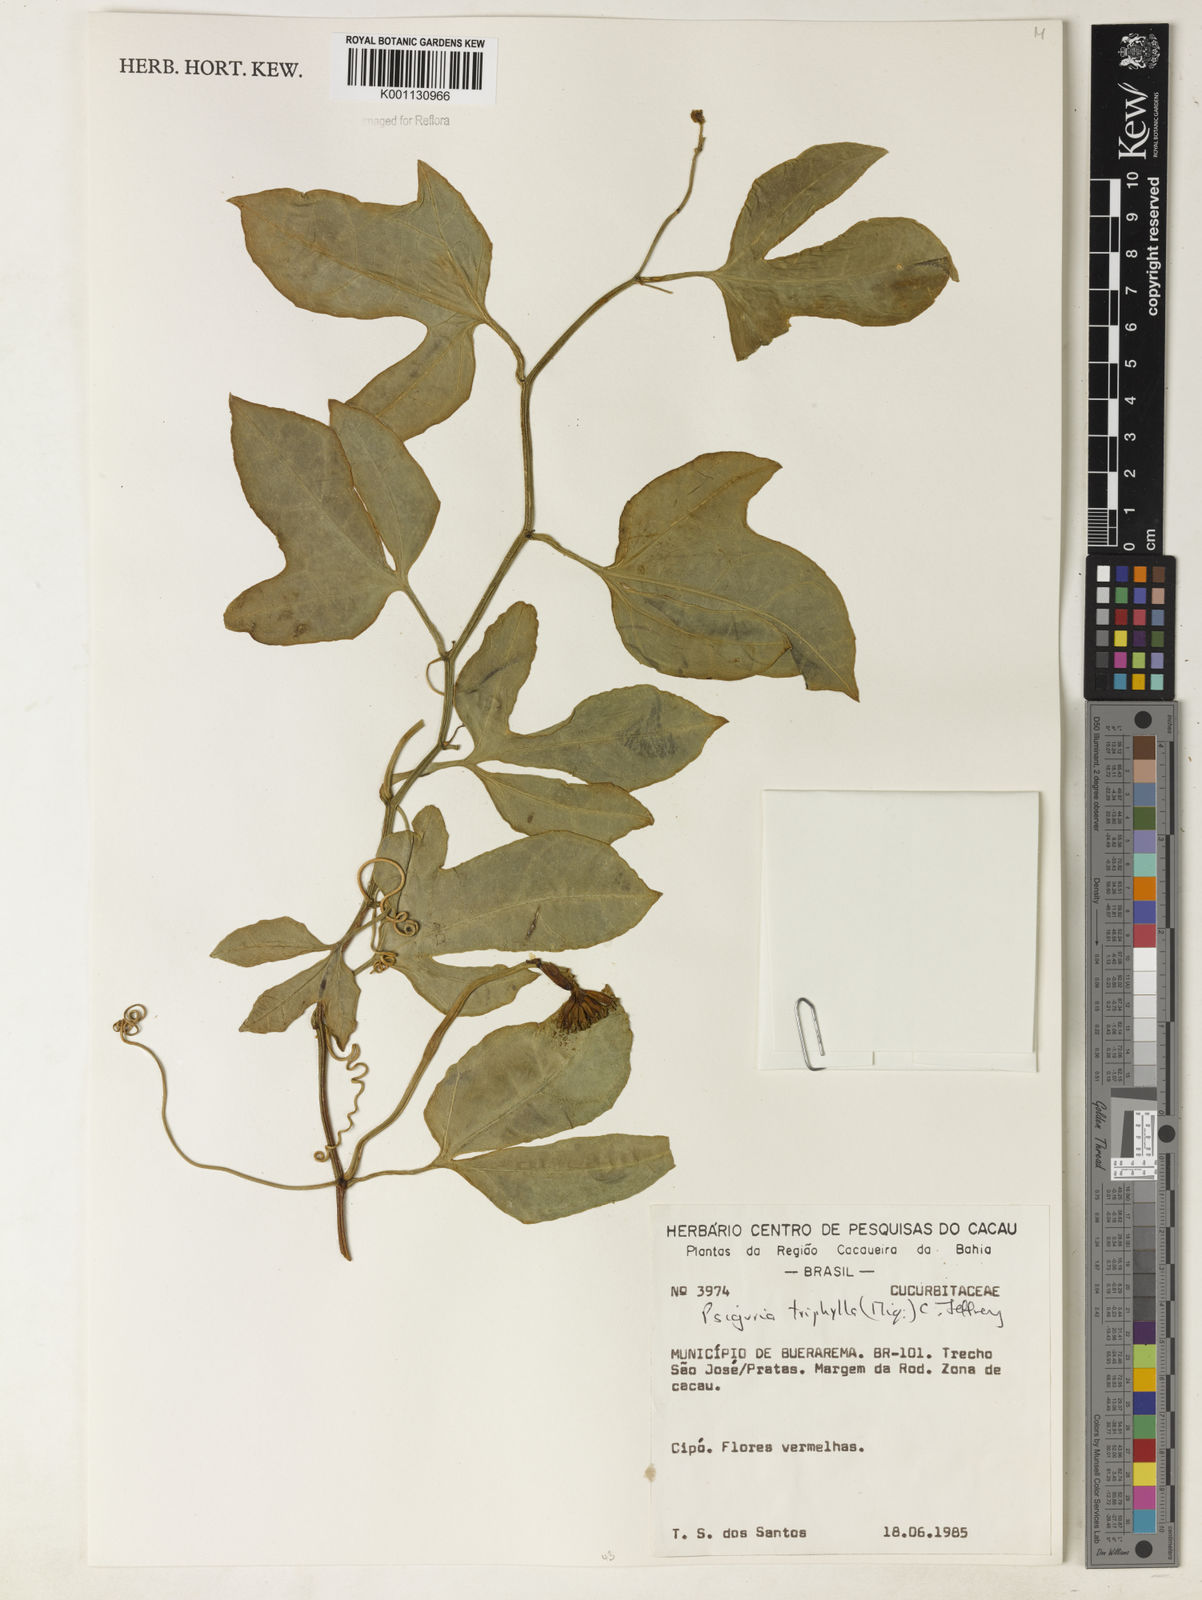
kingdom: Plantae
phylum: Tracheophyta
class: Magnoliopsida
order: Cucurbitales
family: Cucurbitaceae
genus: Psiguria
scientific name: Psiguria triphylla
